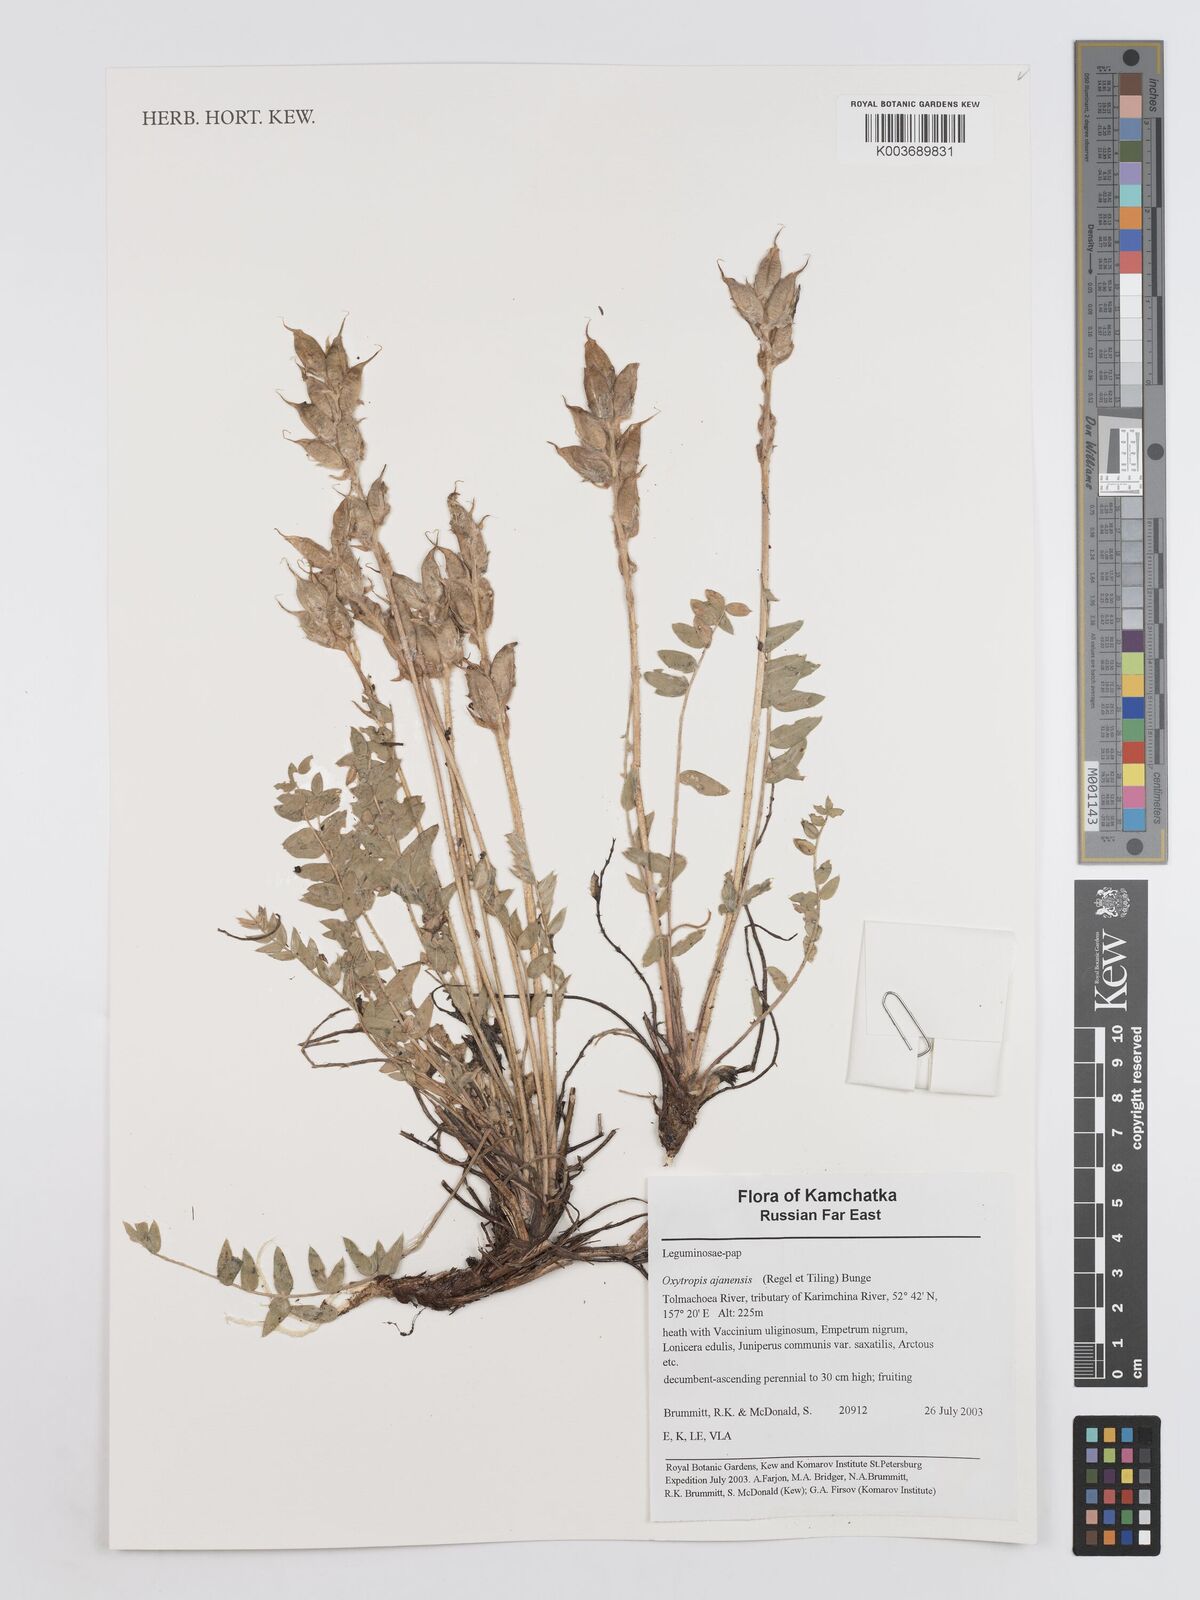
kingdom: Plantae
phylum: Tracheophyta
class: Magnoliopsida
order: Fabales
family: Fabaceae
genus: Oxytropis
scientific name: Oxytropis ajanensis
